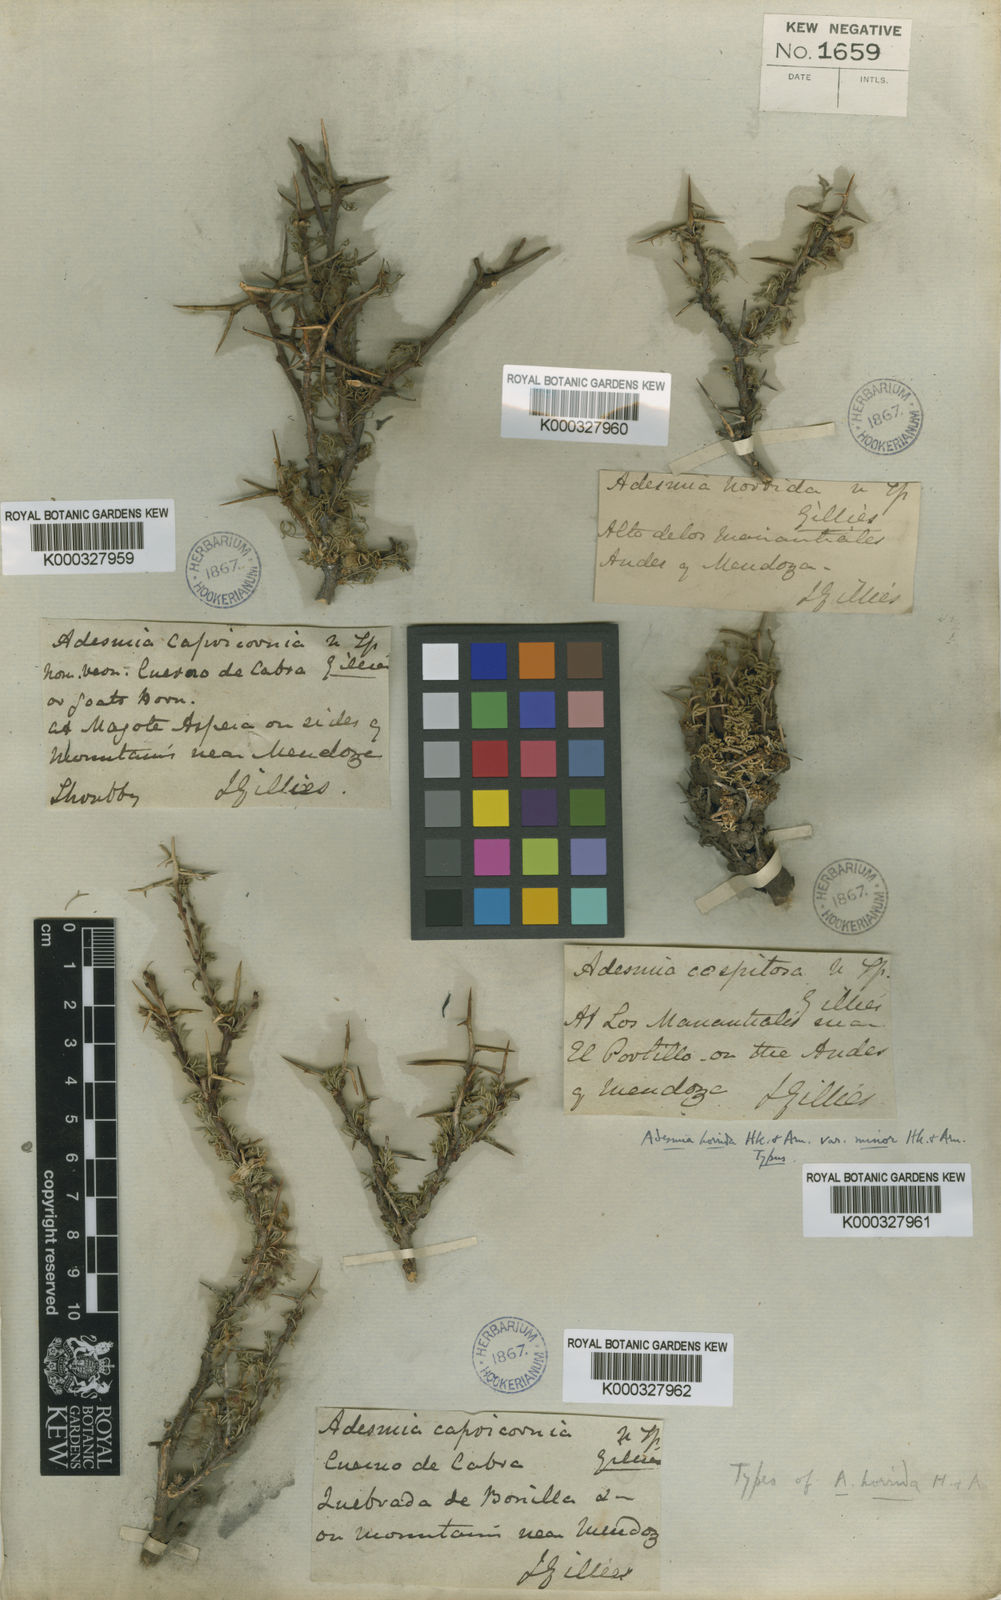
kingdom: Plantae
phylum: Tracheophyta
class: Magnoliopsida
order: Fabales
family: Fabaceae
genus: Adesmia
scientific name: Adesmia horrida
